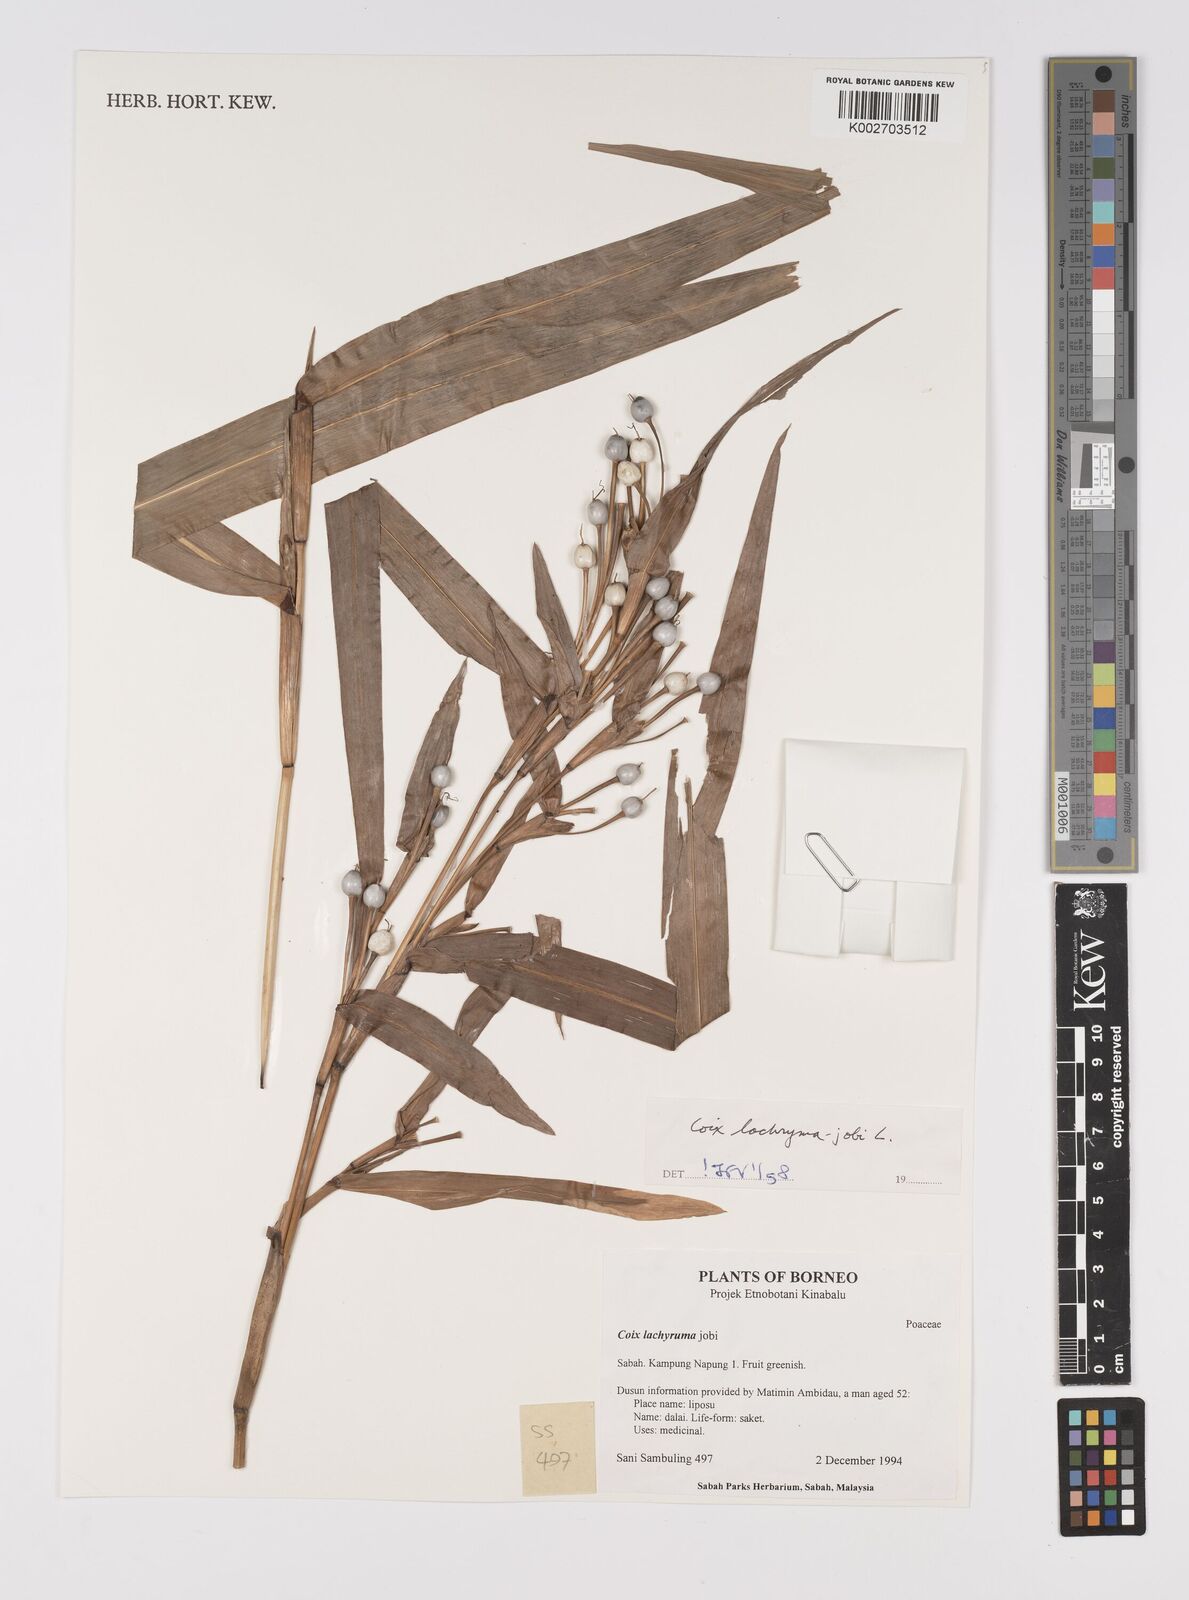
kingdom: Plantae
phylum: Tracheophyta
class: Liliopsida
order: Poales
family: Poaceae
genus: Coix
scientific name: Coix lacryma-jobi
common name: Job's tears
